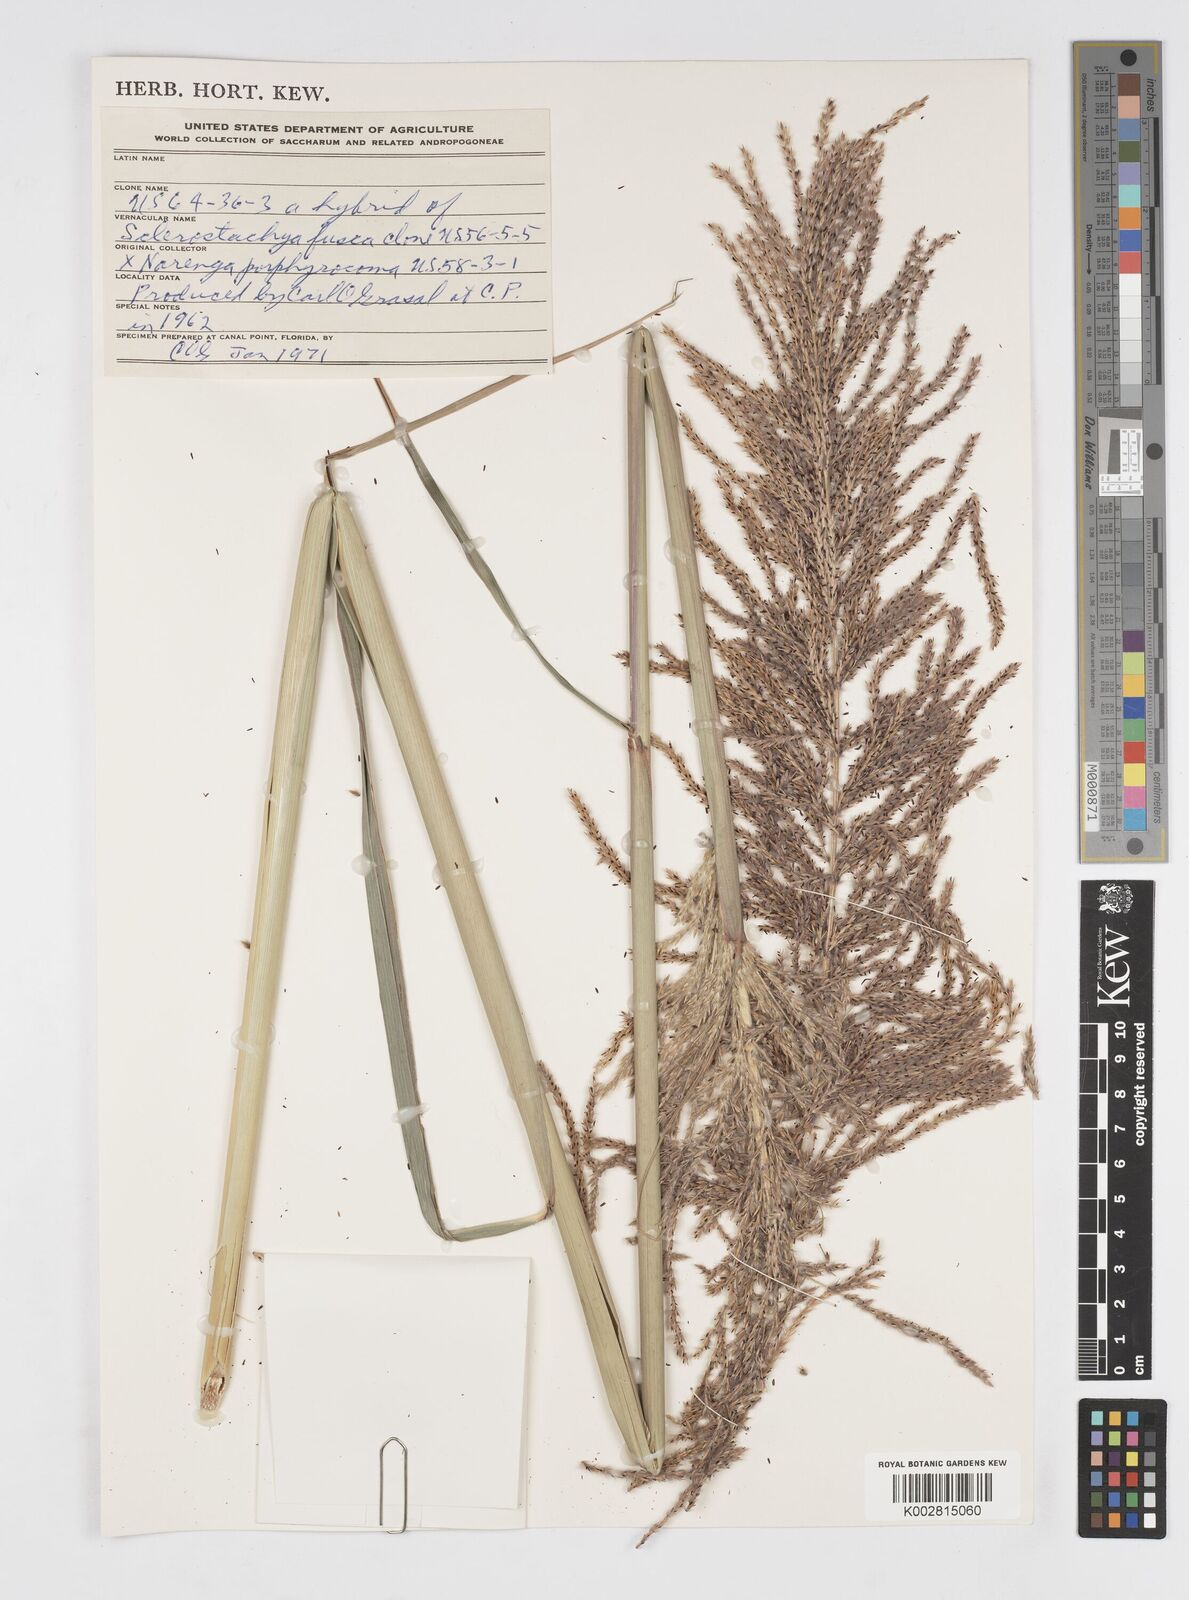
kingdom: Plantae
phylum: Tracheophyta
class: Liliopsida
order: Poales
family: Poaceae
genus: Saccharum
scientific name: Saccharum
